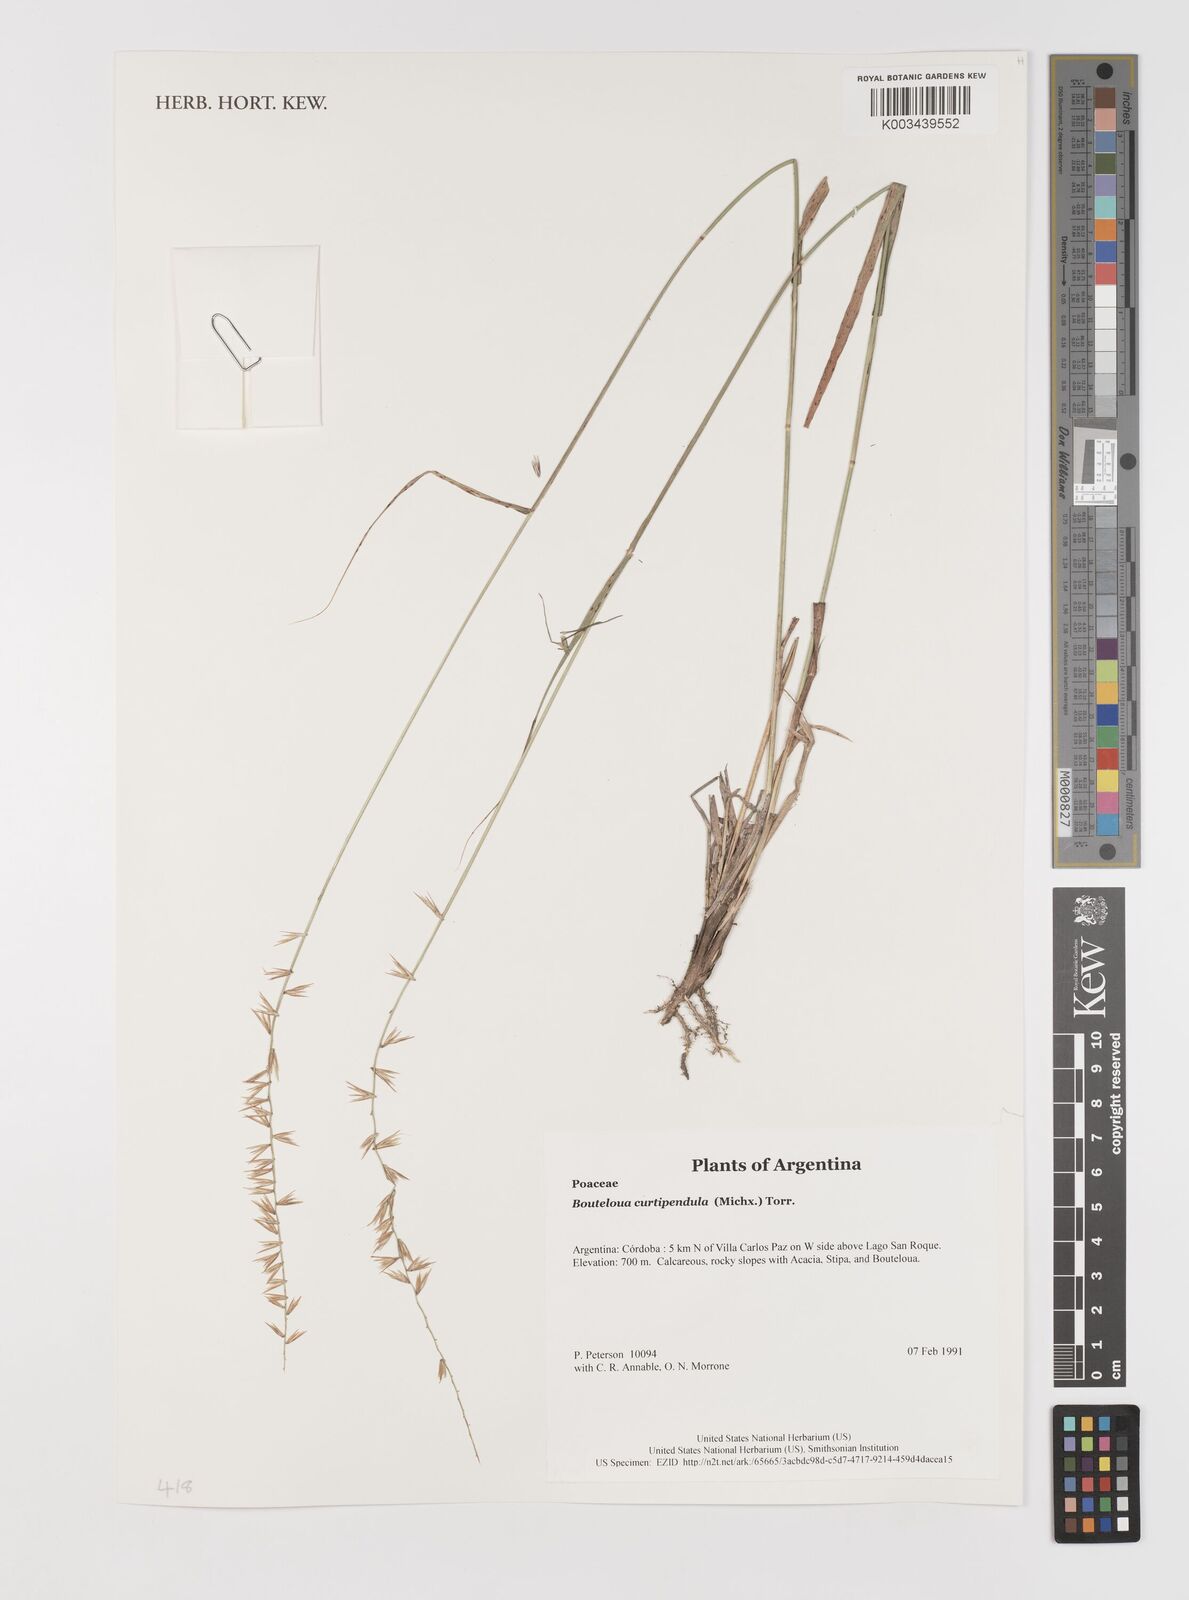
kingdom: Plantae
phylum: Tracheophyta
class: Liliopsida
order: Poales
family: Poaceae
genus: Bouteloua
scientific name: Bouteloua curtipendula
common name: Side-oats grama
